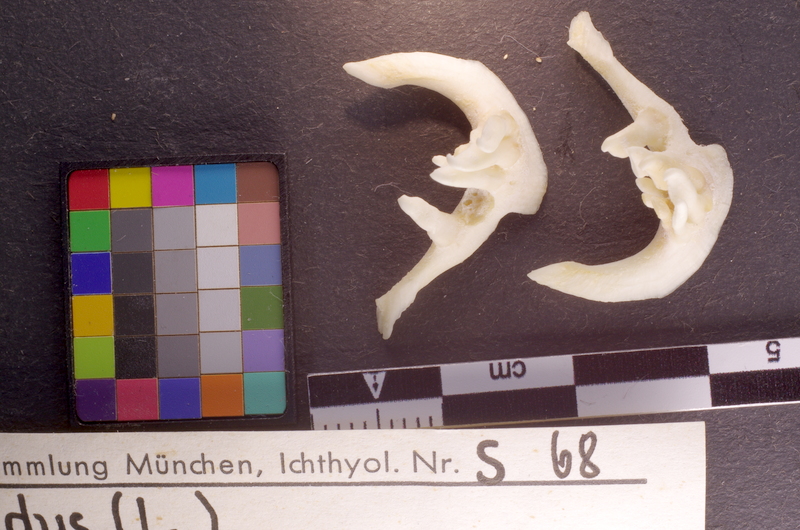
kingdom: Animalia
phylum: Chordata
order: Cypriniformes
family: Cyprinidae
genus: Leuciscus
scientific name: Leuciscus idus
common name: Ide
